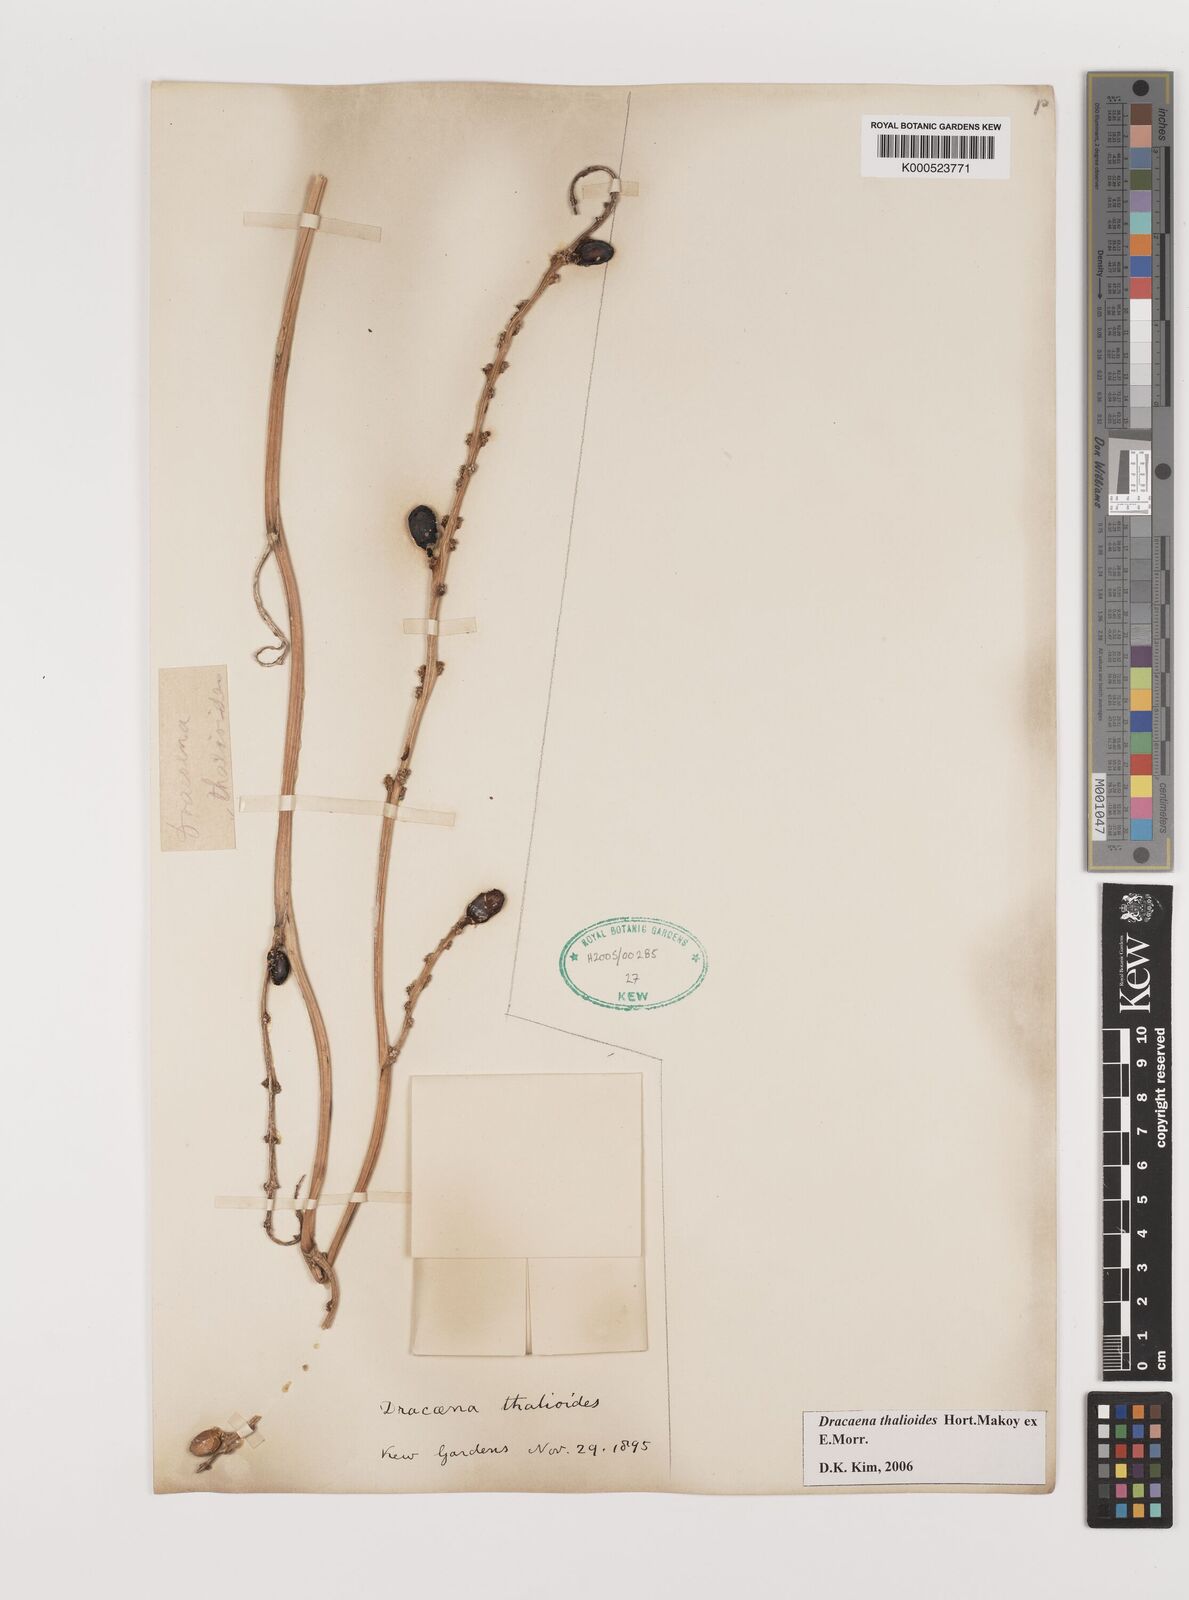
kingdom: Plantae
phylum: Tracheophyta
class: Liliopsida
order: Asparagales
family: Asparagaceae
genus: Dracaena
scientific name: Dracaena
